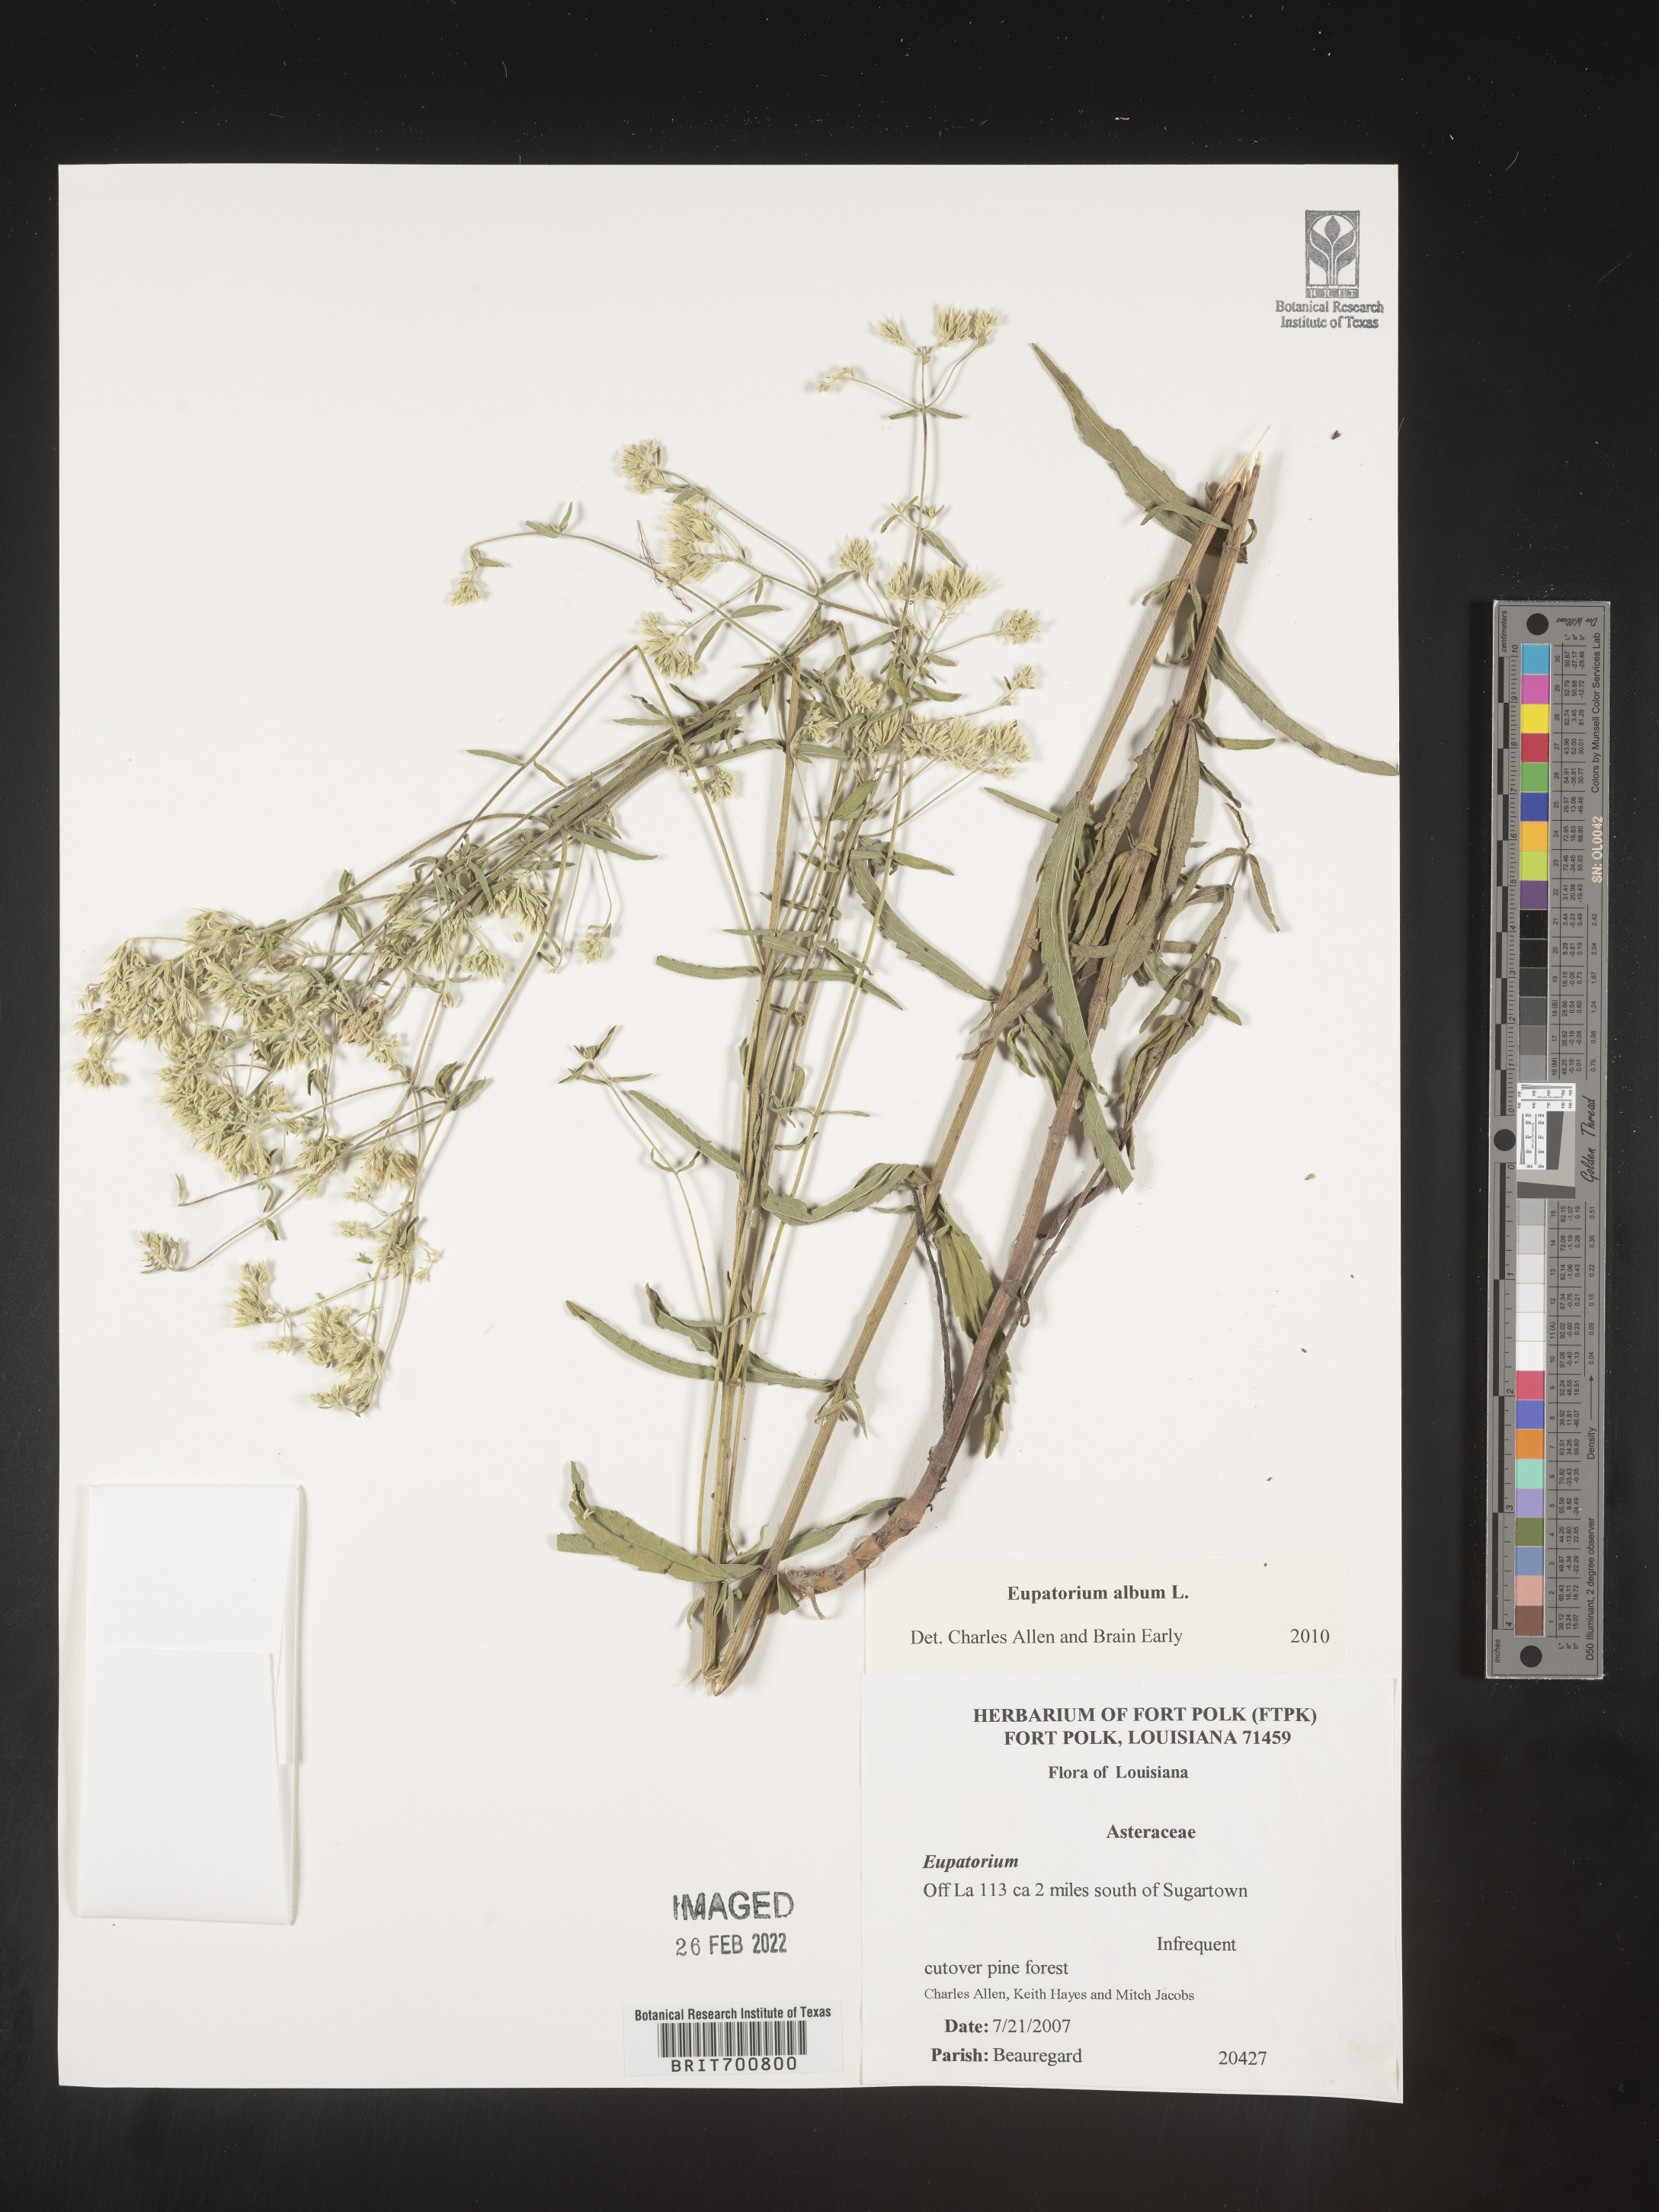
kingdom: Plantae
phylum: Tracheophyta
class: Magnoliopsida
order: Asterales
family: Asteraceae
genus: Eupatorium
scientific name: Eupatorium album
